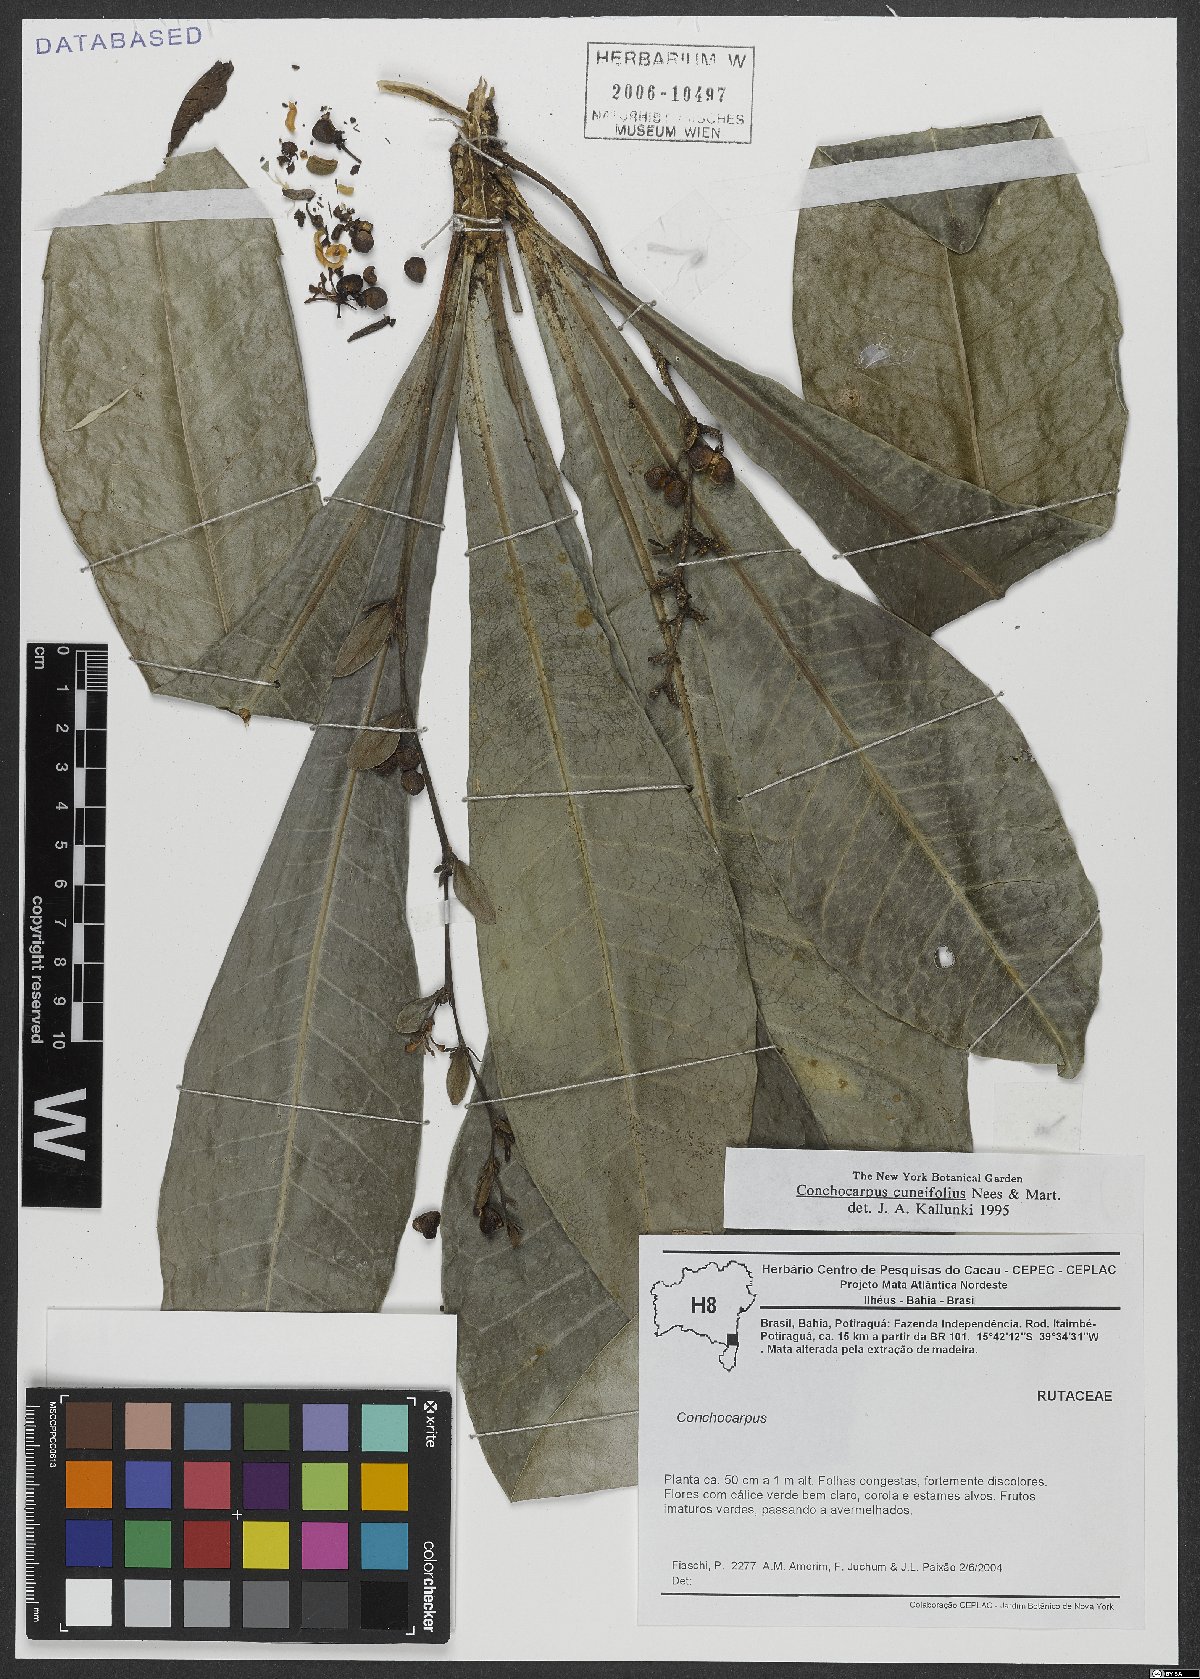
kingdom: Plantae
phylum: Tracheophyta
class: Magnoliopsida
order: Sapindales
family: Rutaceae
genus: Conchocarpus
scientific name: Conchocarpus cuneifolius
